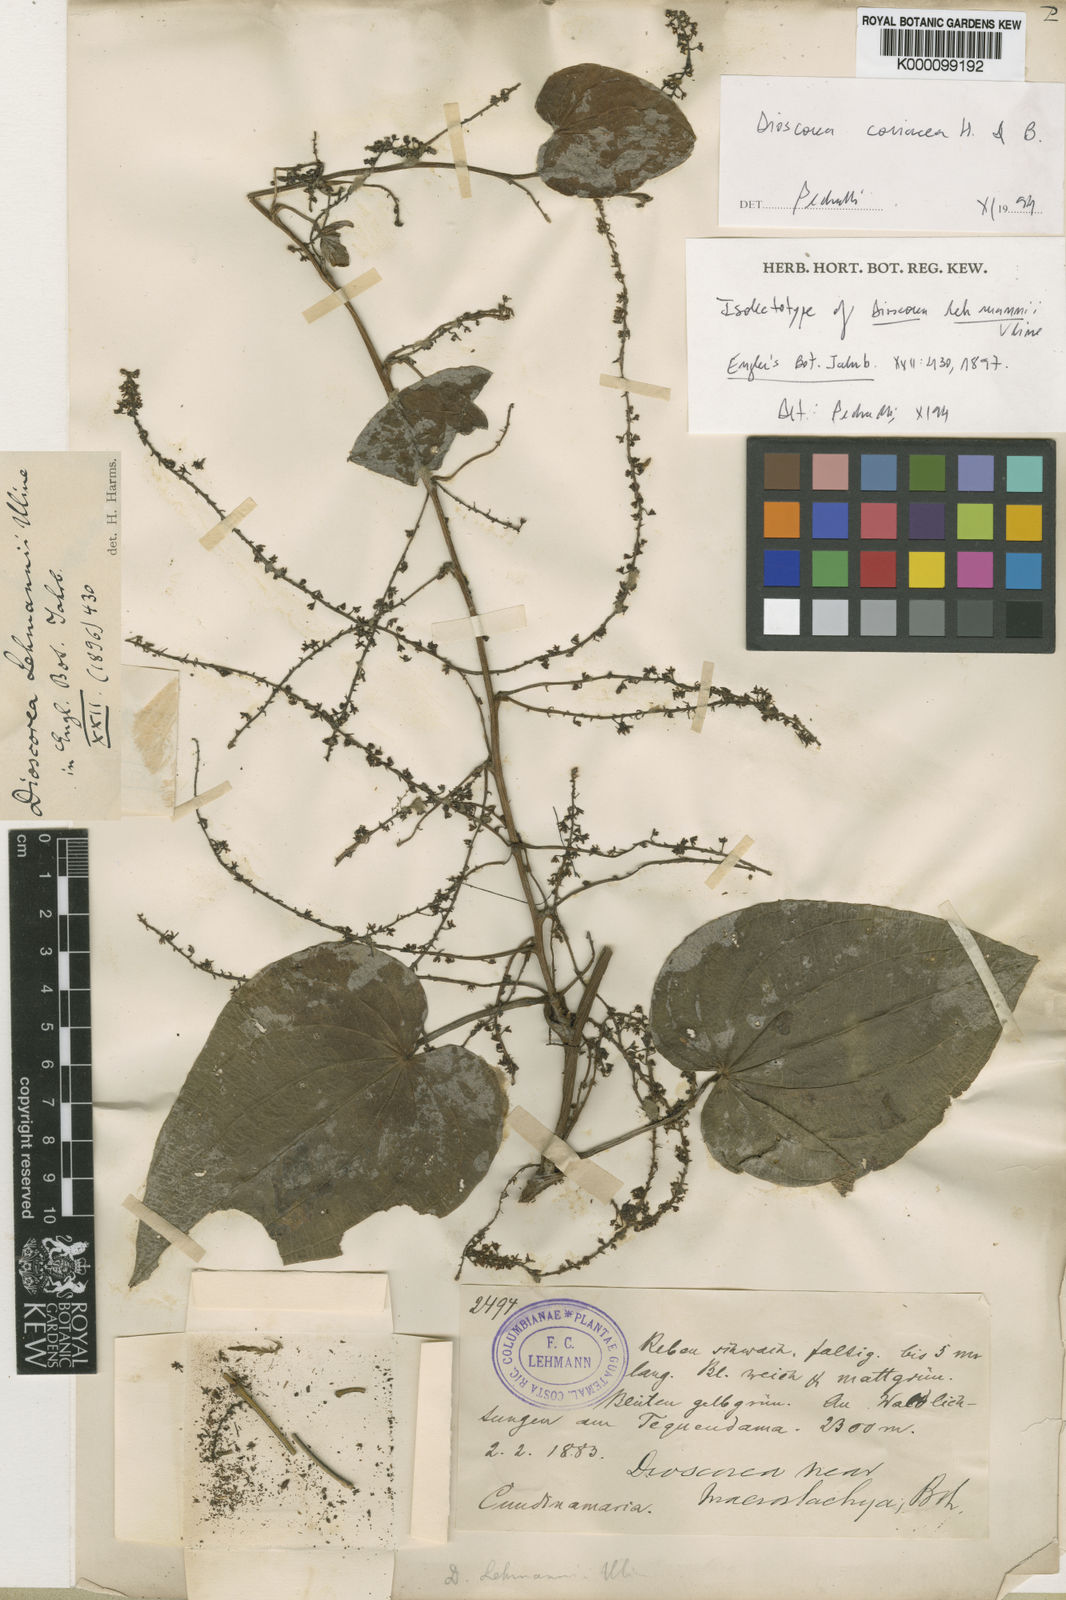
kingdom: Plantae
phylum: Tracheophyta
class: Liliopsida
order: Dioscoreales
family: Dioscoreaceae
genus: Dioscorea
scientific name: Dioscorea lehmannii
